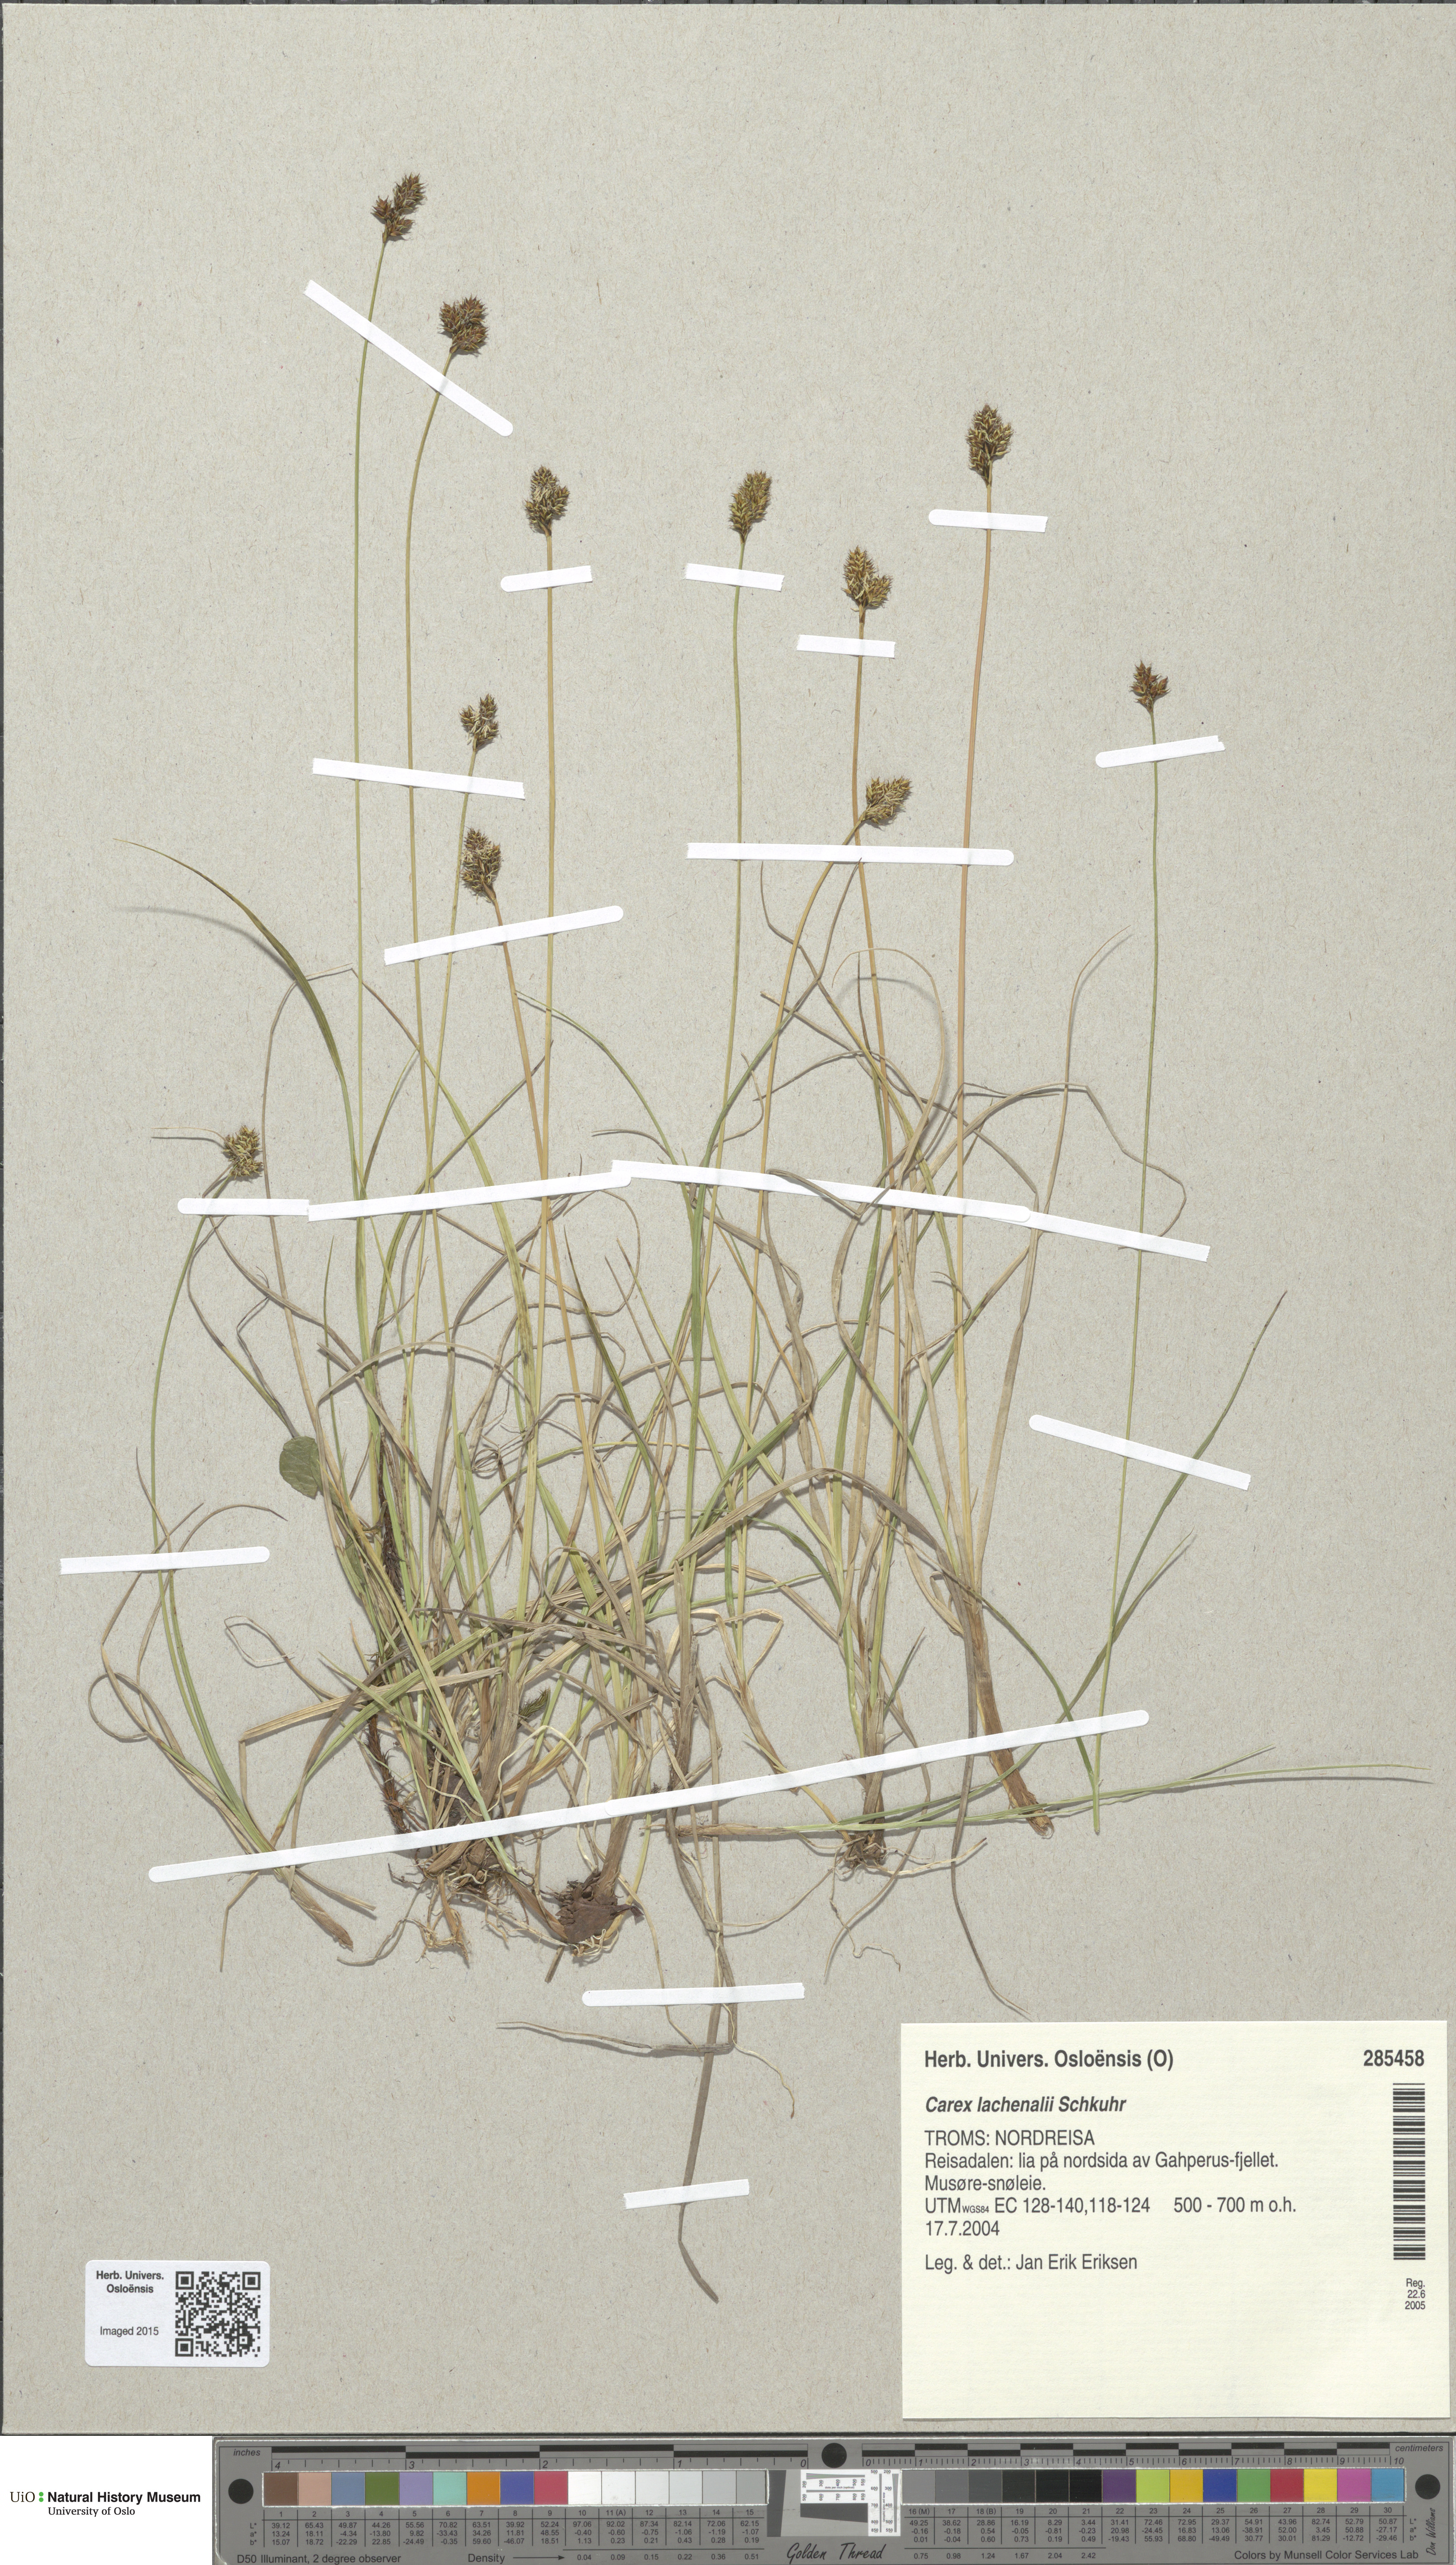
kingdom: Plantae
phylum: Tracheophyta
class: Liliopsida
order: Poales
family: Cyperaceae
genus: Carex
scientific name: Carex lachenalii
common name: Hare's-foot sedge
